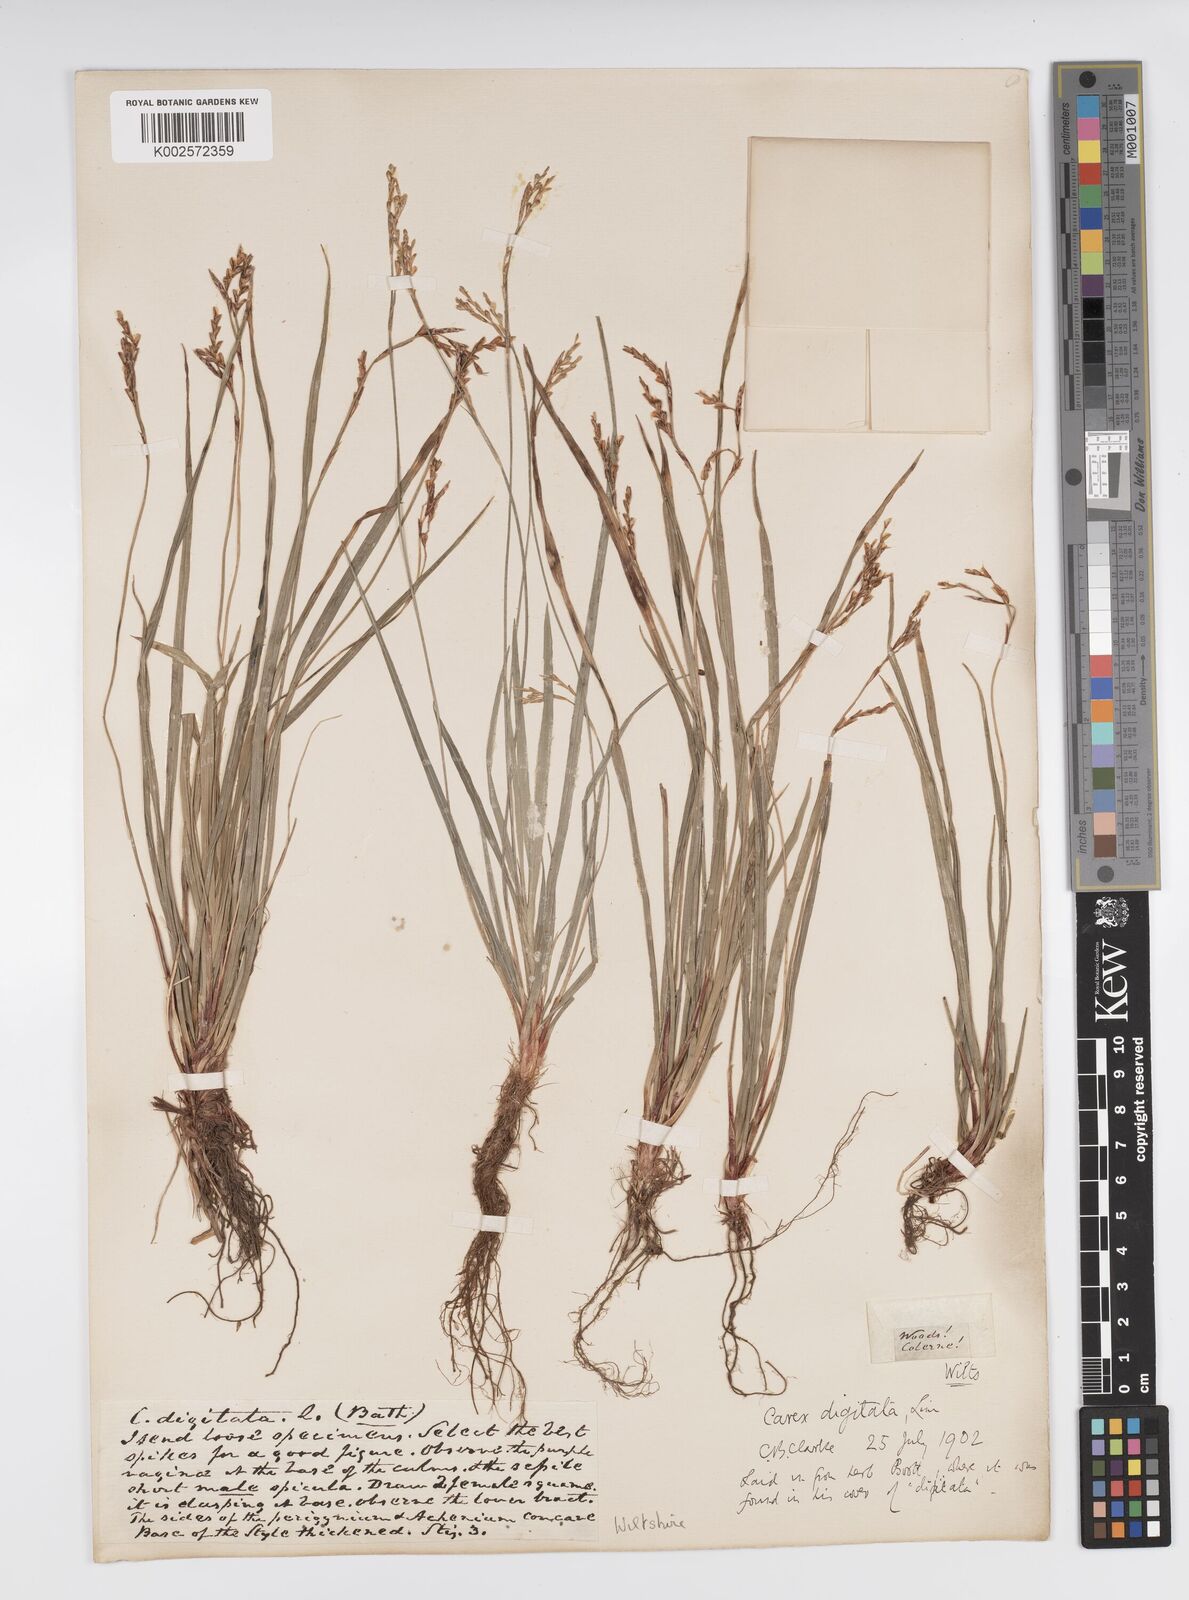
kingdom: Plantae
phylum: Tracheophyta
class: Liliopsida
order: Poales
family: Cyperaceae
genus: Carex
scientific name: Carex digitata
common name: Fingered sedge
